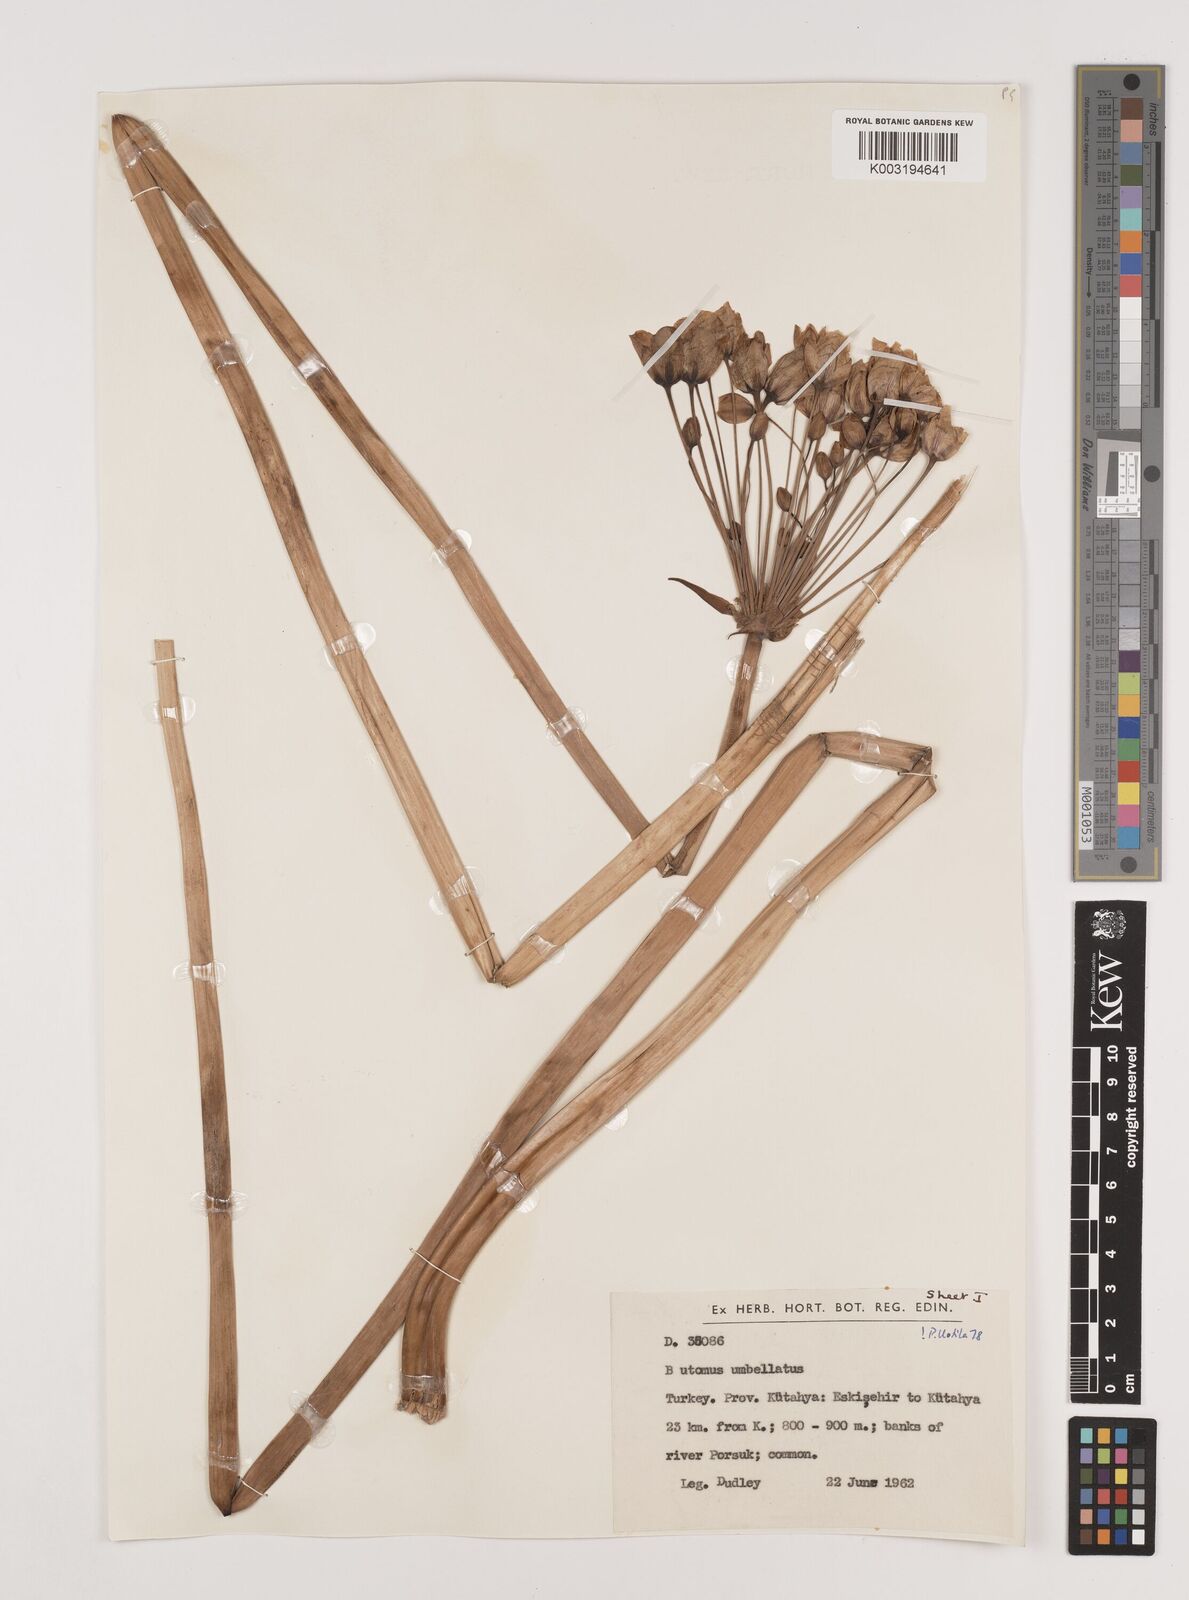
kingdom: Plantae
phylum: Tracheophyta
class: Liliopsida
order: Alismatales
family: Butomaceae
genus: Butomus
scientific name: Butomus umbellatus
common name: Flowering-rush
